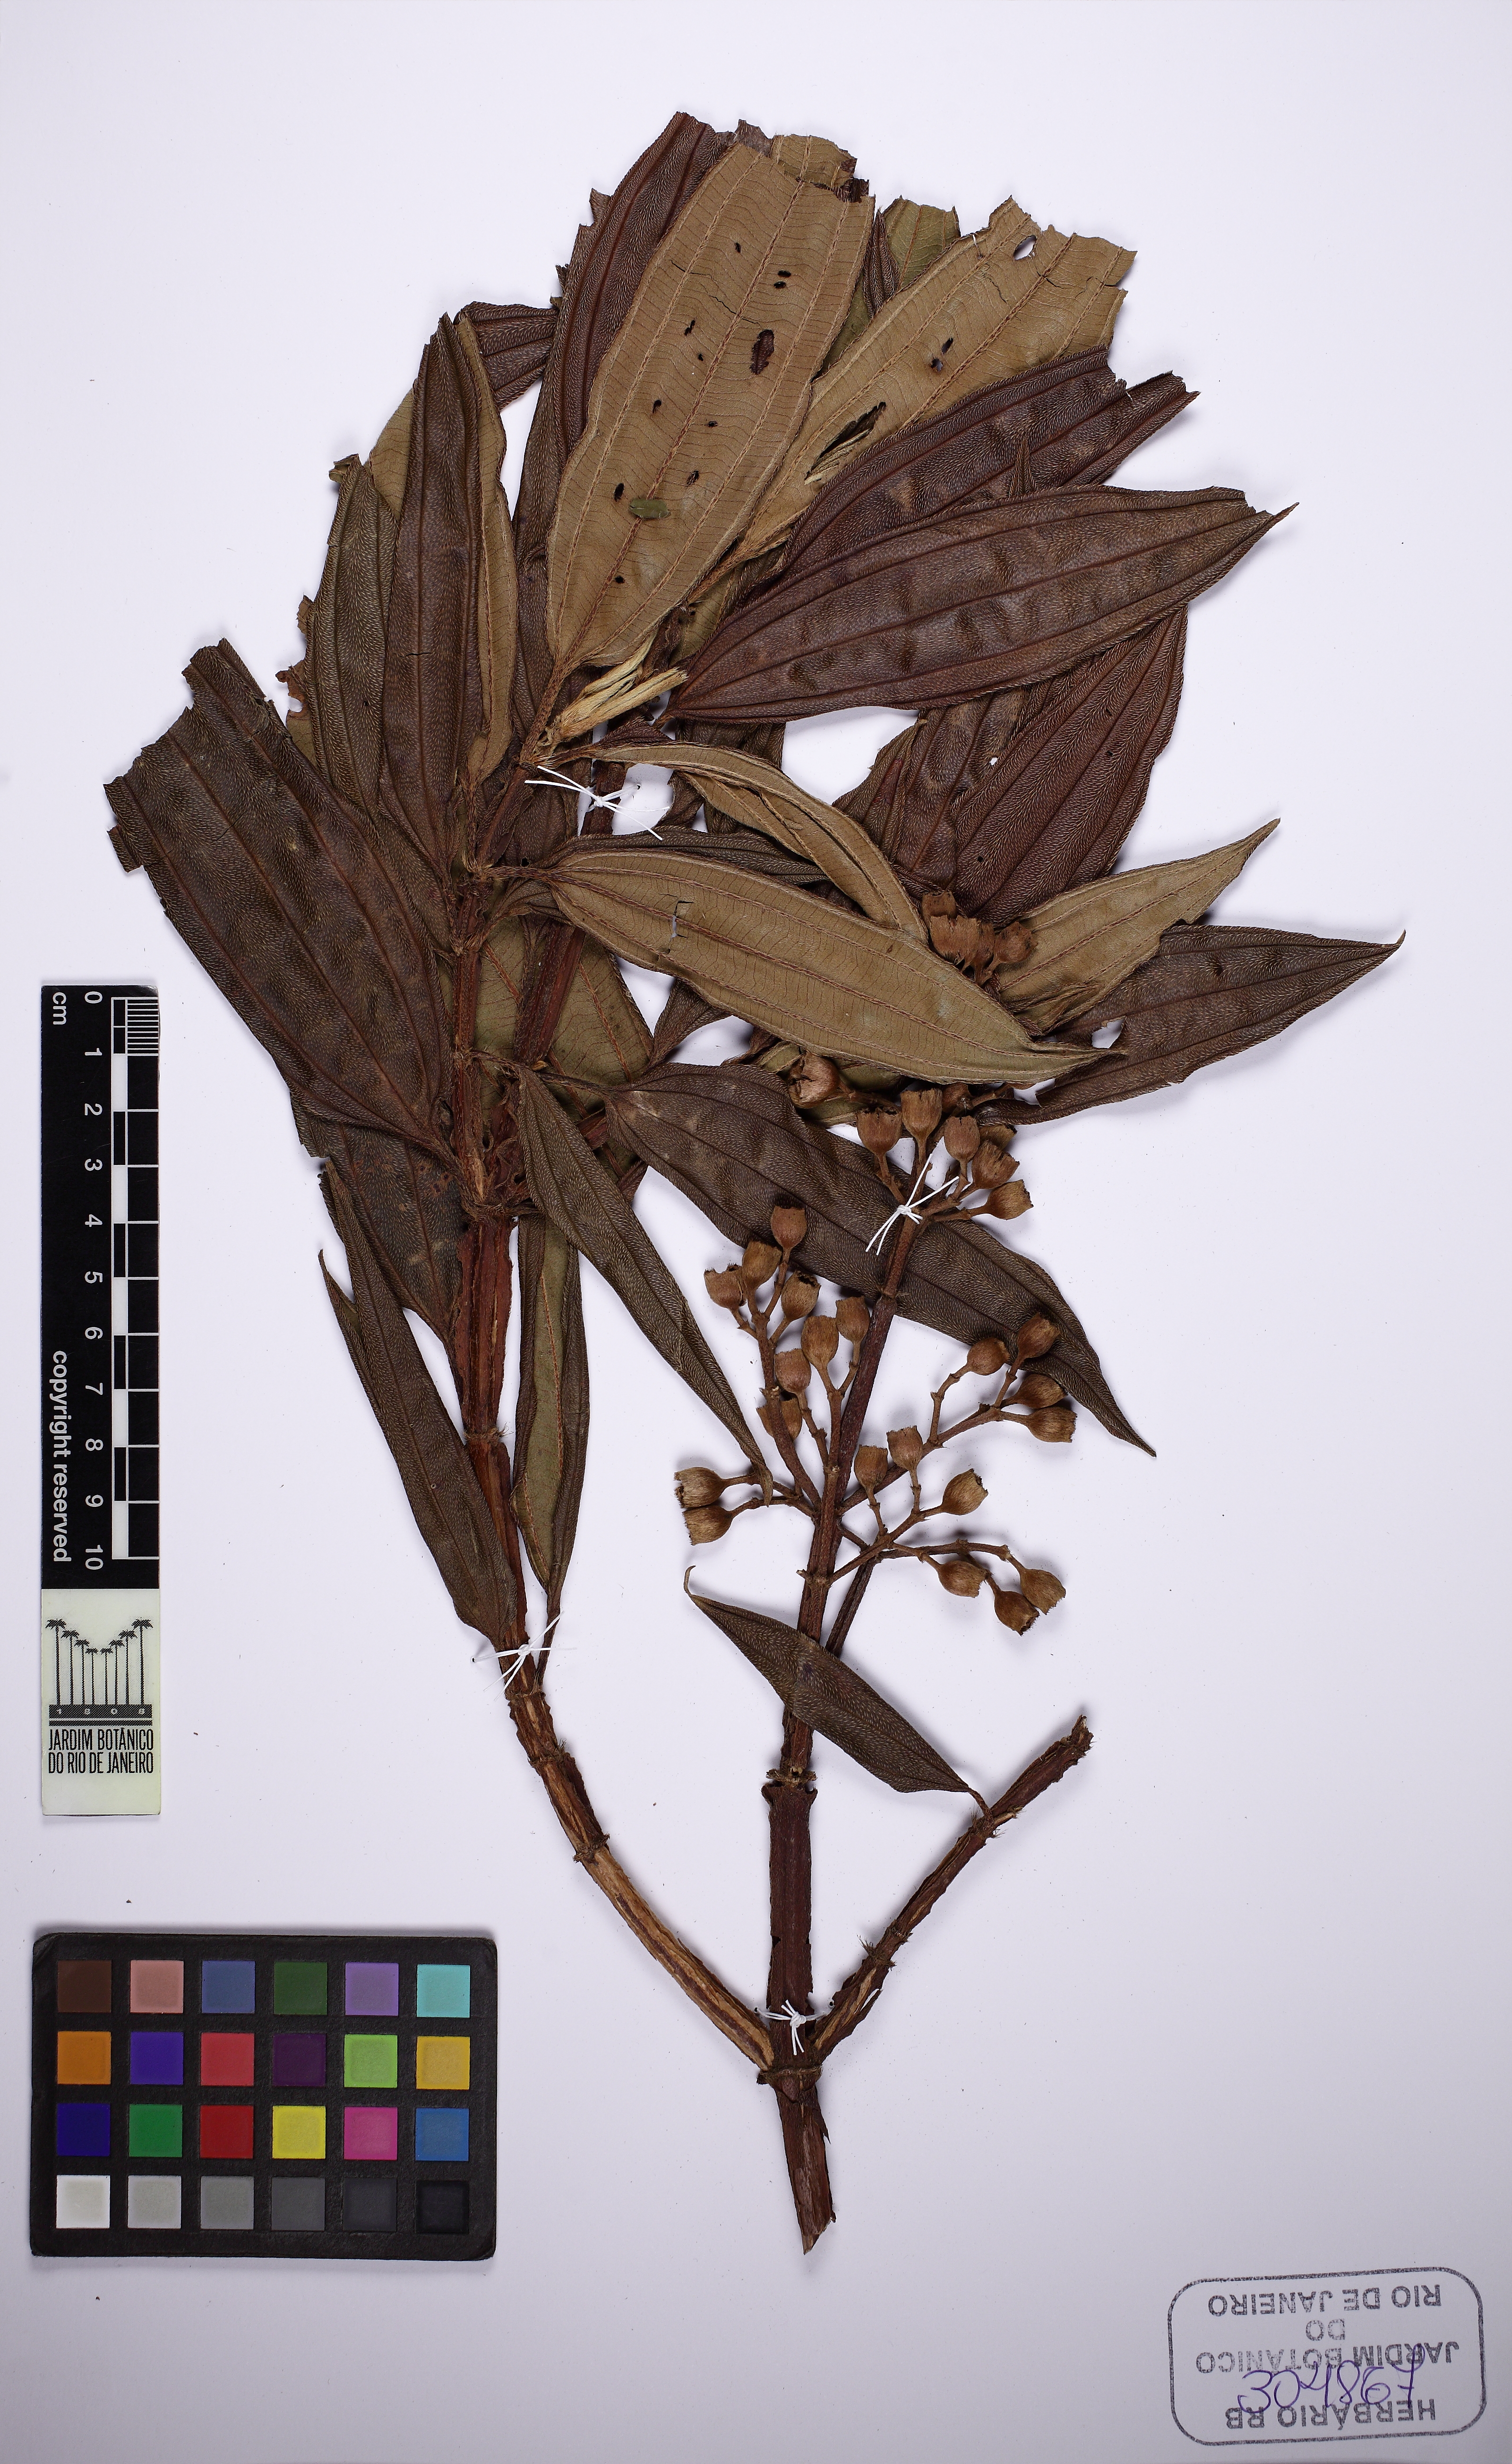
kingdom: Plantae
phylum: Tracheophyta
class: Magnoliopsida
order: Myrtales
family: Melastomataceae
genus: Pleroma
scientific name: Pleroma granulosum
